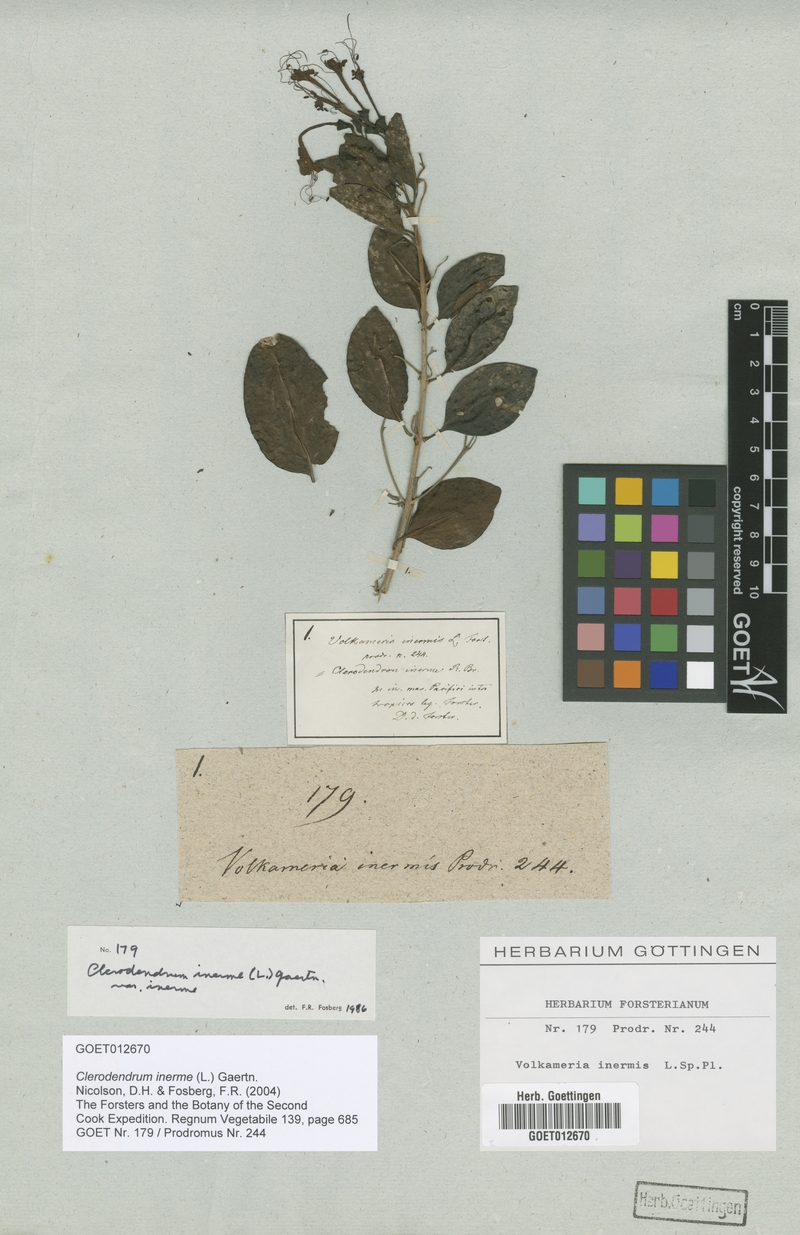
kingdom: Plantae
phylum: Tracheophyta
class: Magnoliopsida
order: Lamiales
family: Lamiaceae
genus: Volkameria
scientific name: Volkameria inermis
